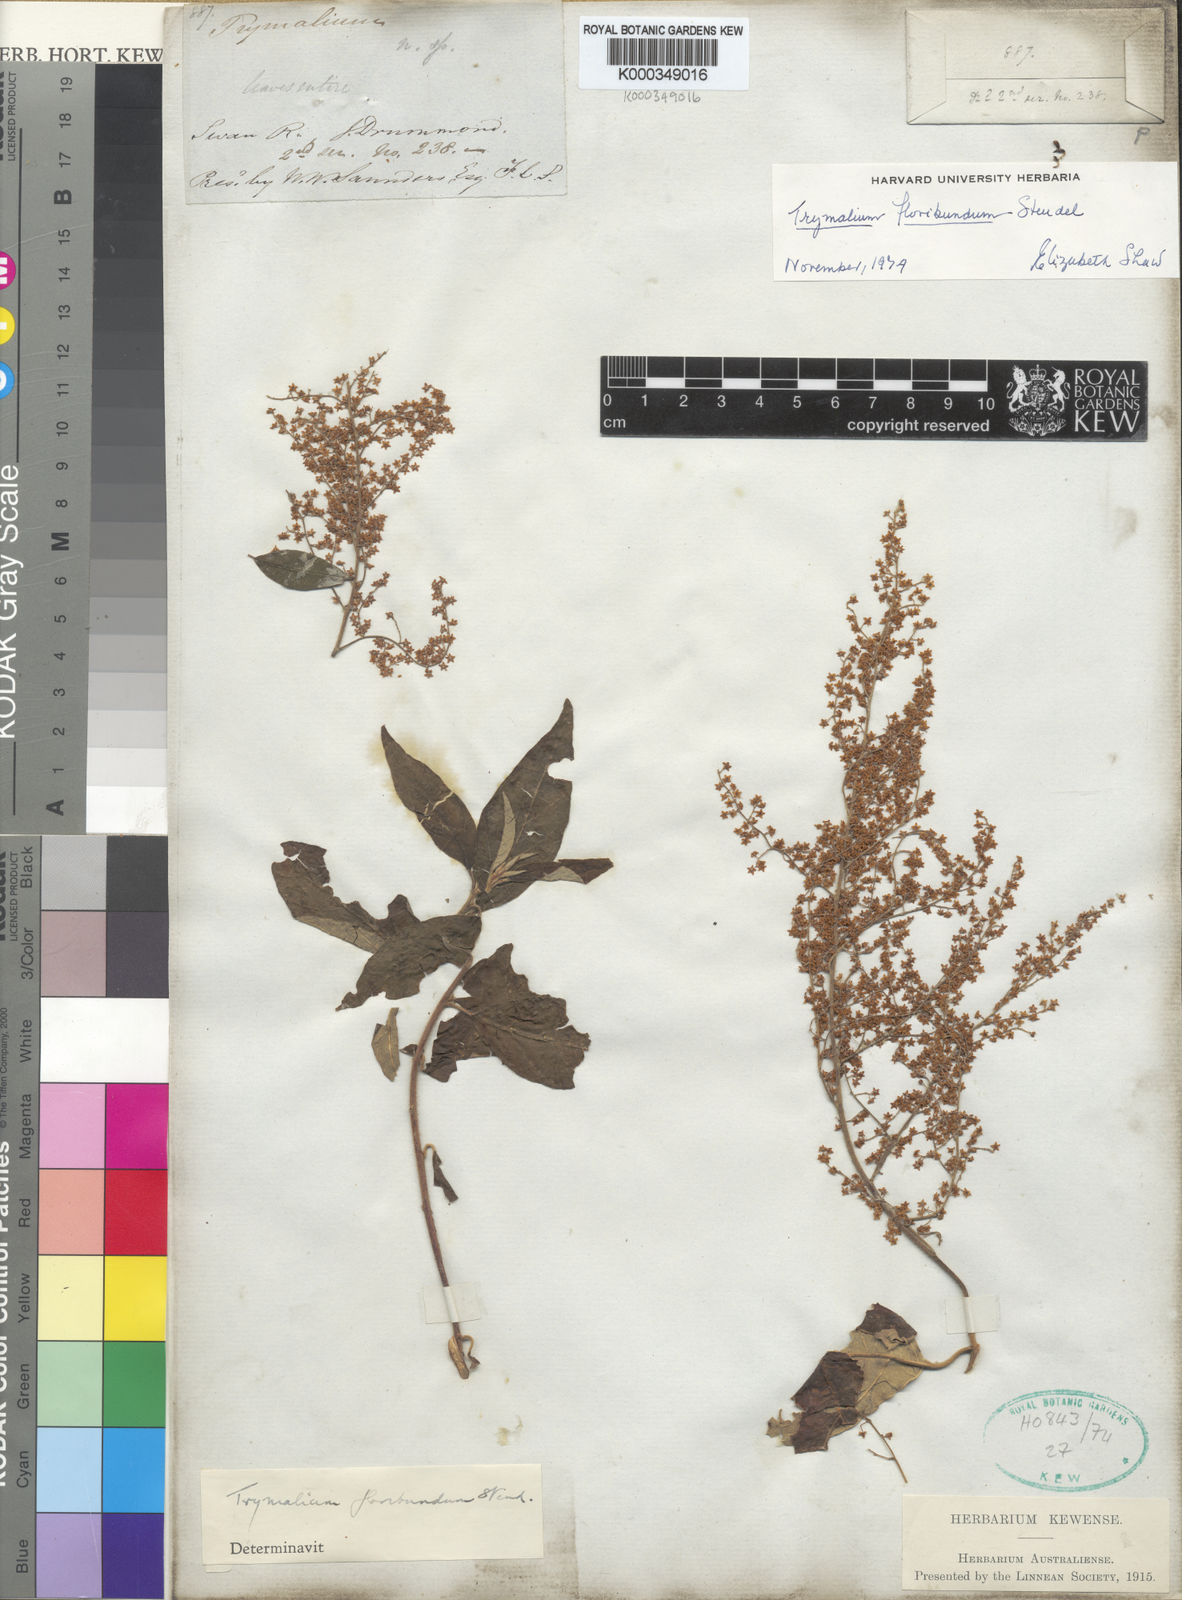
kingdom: Plantae
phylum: Tracheophyta
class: Magnoliopsida
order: Rosales
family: Rhamnaceae
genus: Trymalium
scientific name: Trymalium odoratissimum
